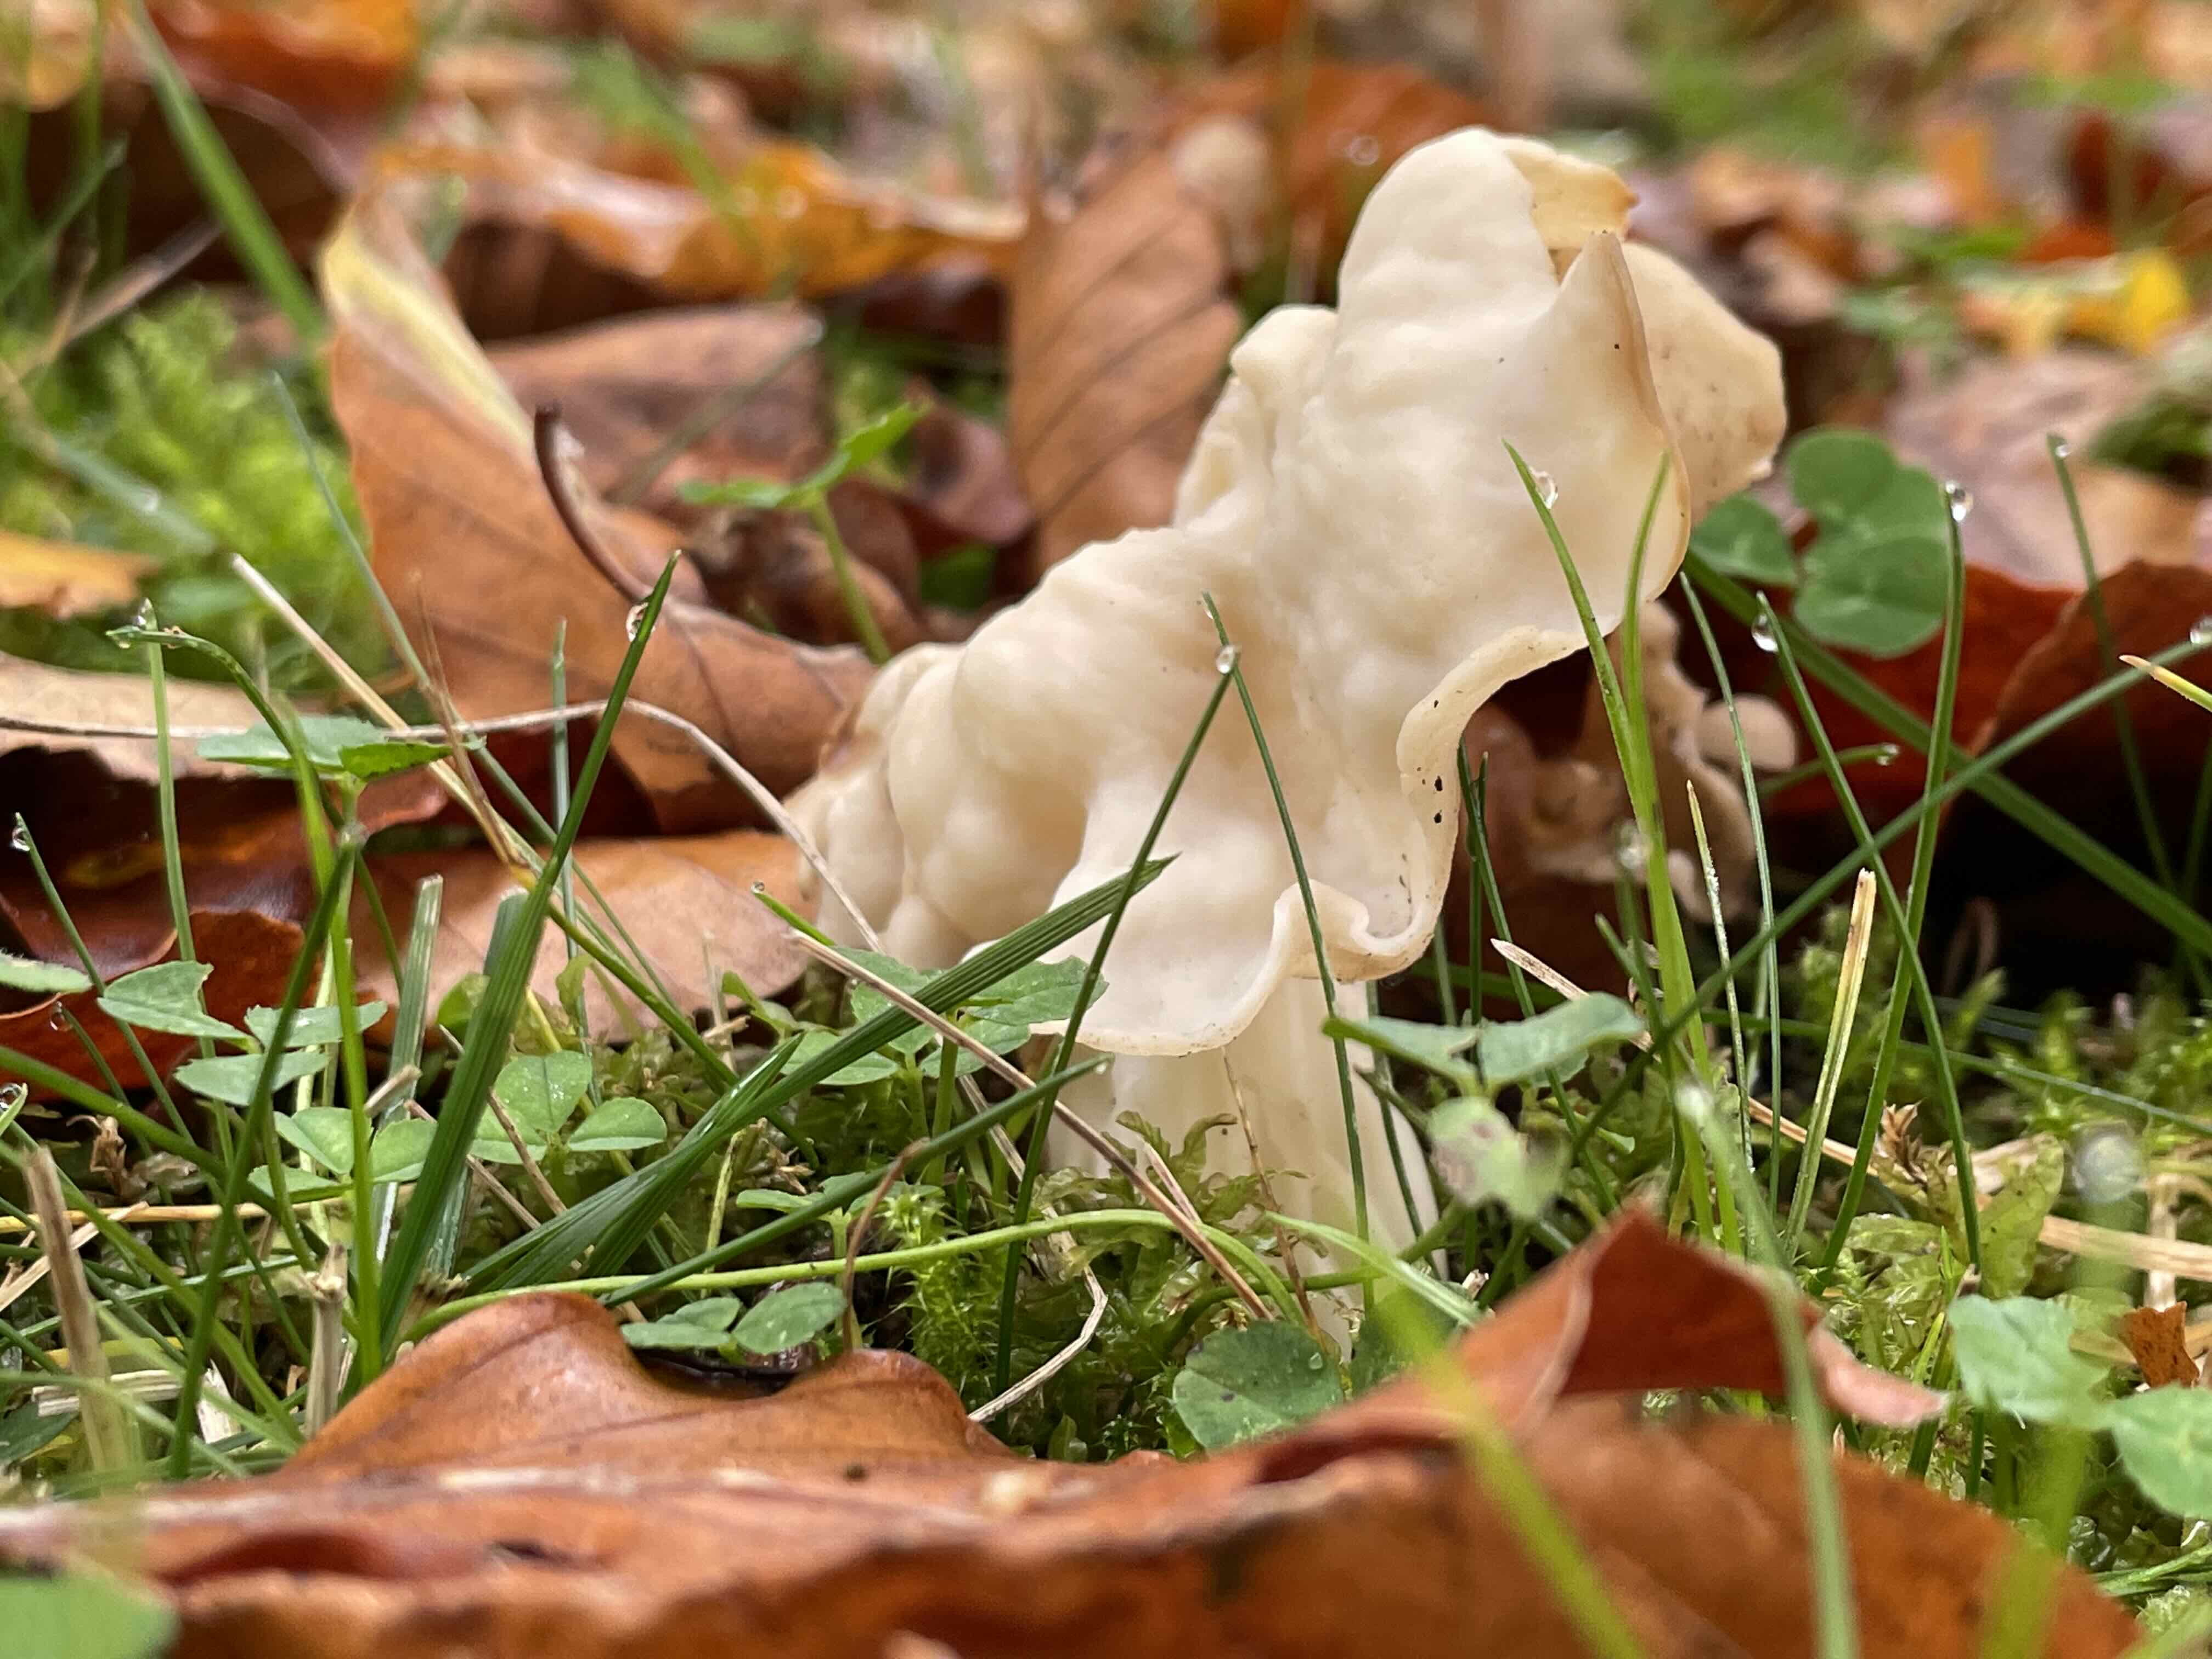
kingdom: Fungi
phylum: Ascomycota
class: Pezizomycetes
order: Pezizales
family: Helvellaceae
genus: Helvella
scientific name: Helvella crispa
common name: kruset foldhat
